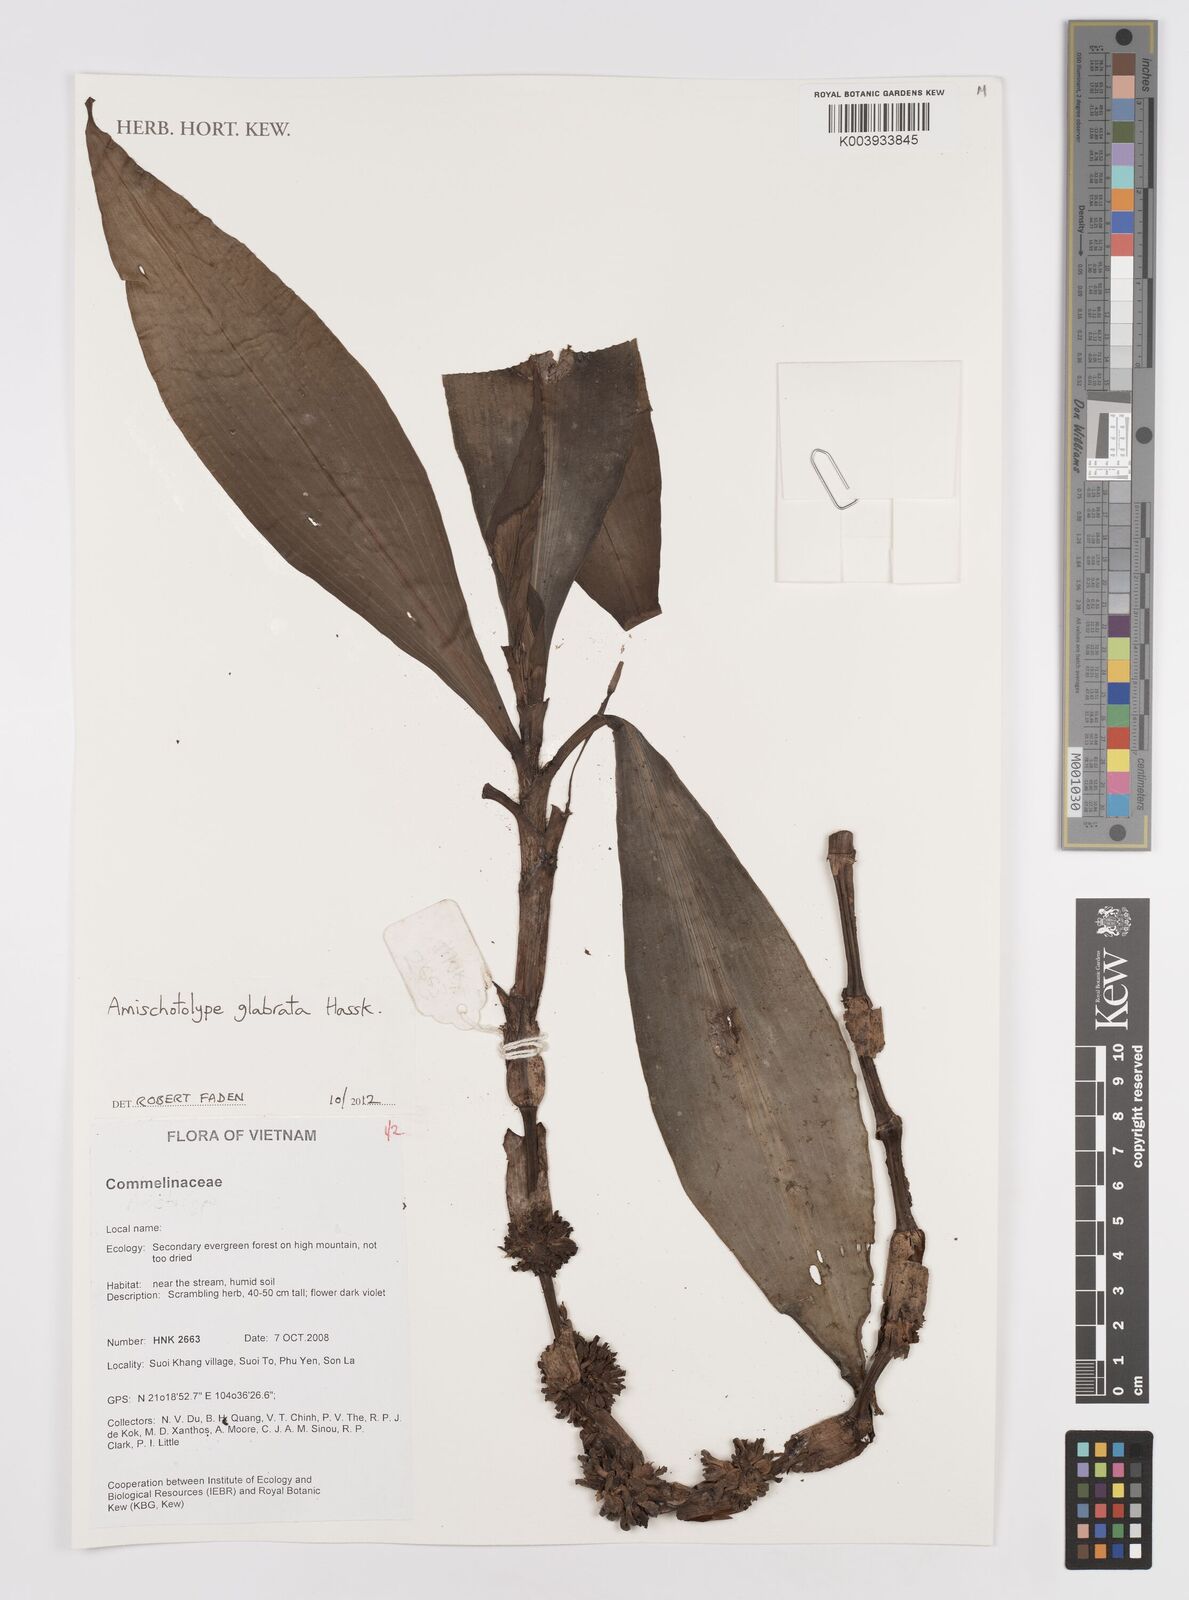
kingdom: Plantae
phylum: Tracheophyta
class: Liliopsida
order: Commelinales
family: Commelinaceae
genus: Amischotolype
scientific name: Amischotolype glabrata
